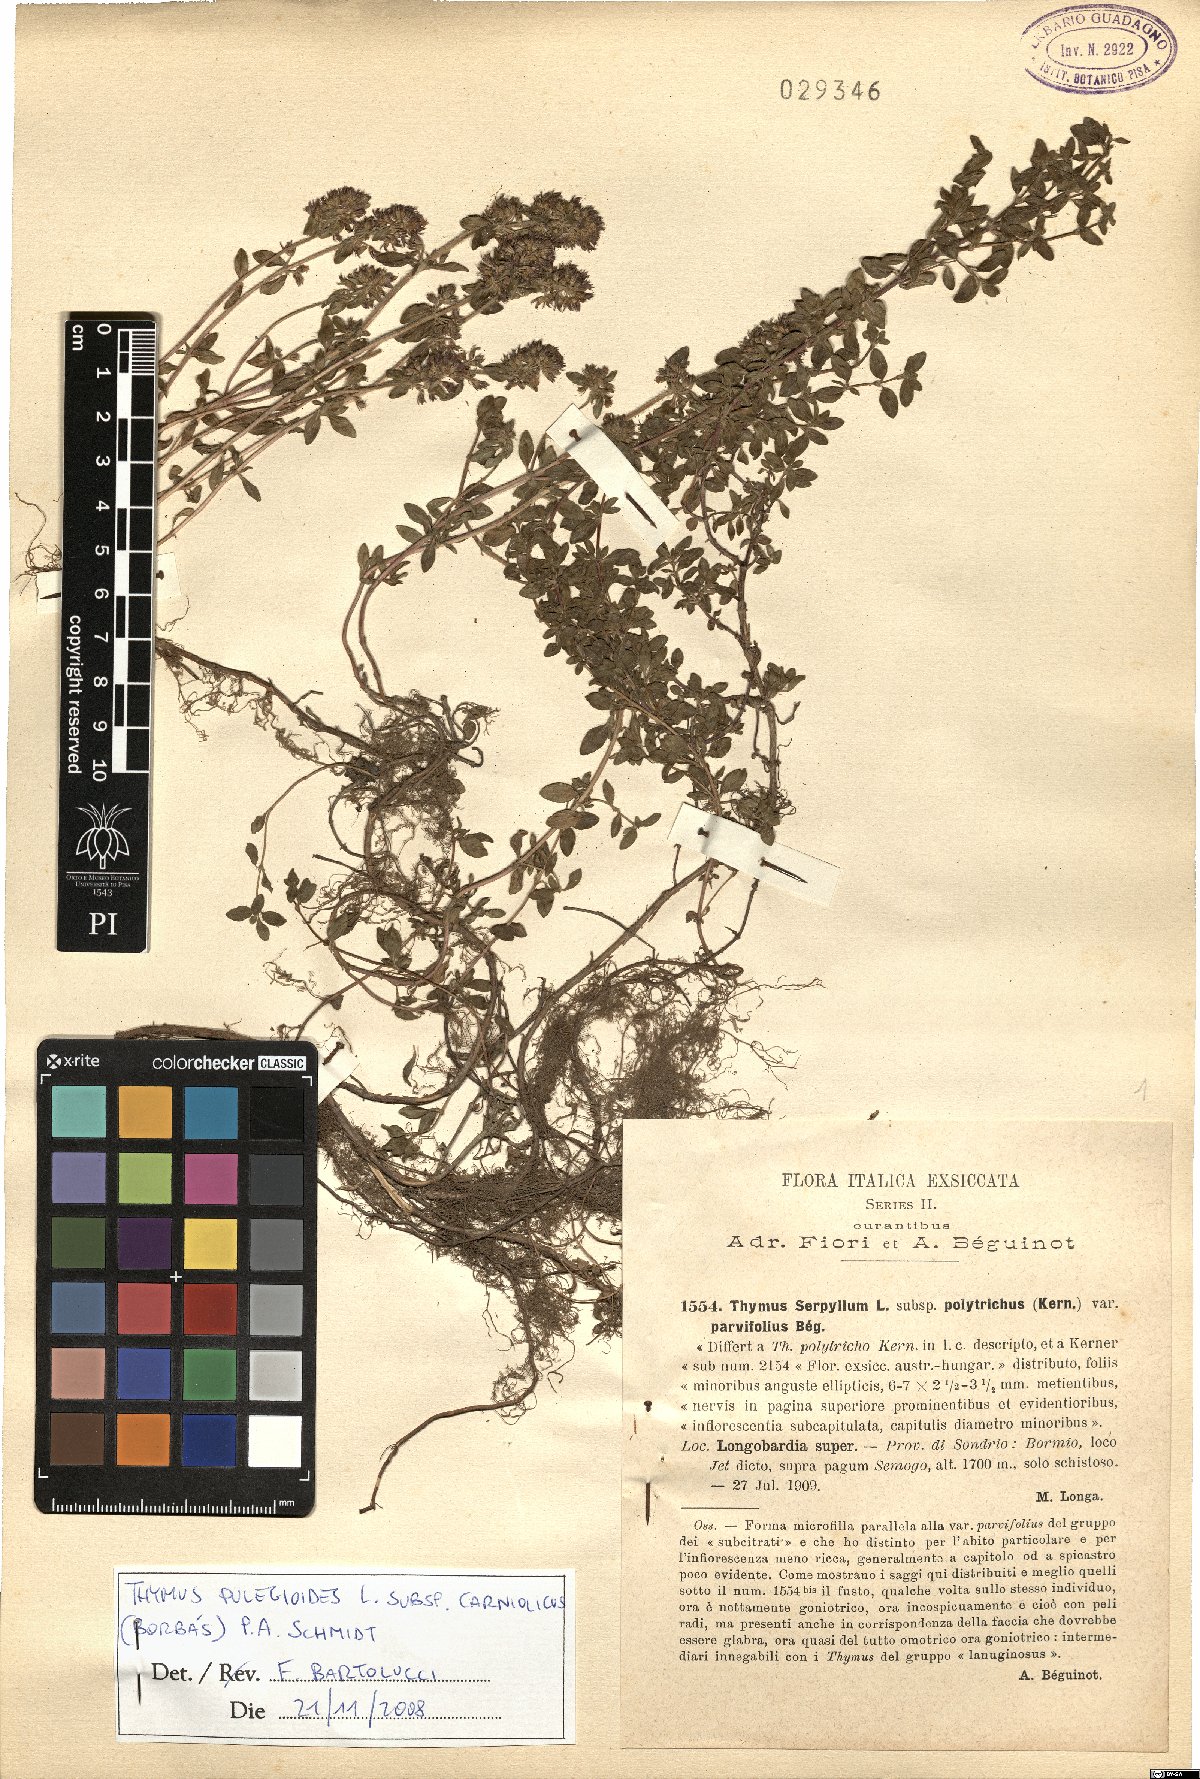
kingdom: Plantae
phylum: Tracheophyta
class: Magnoliopsida
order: Lamiales
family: Lamiaceae
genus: Thymus
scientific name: Thymus pannonicus
